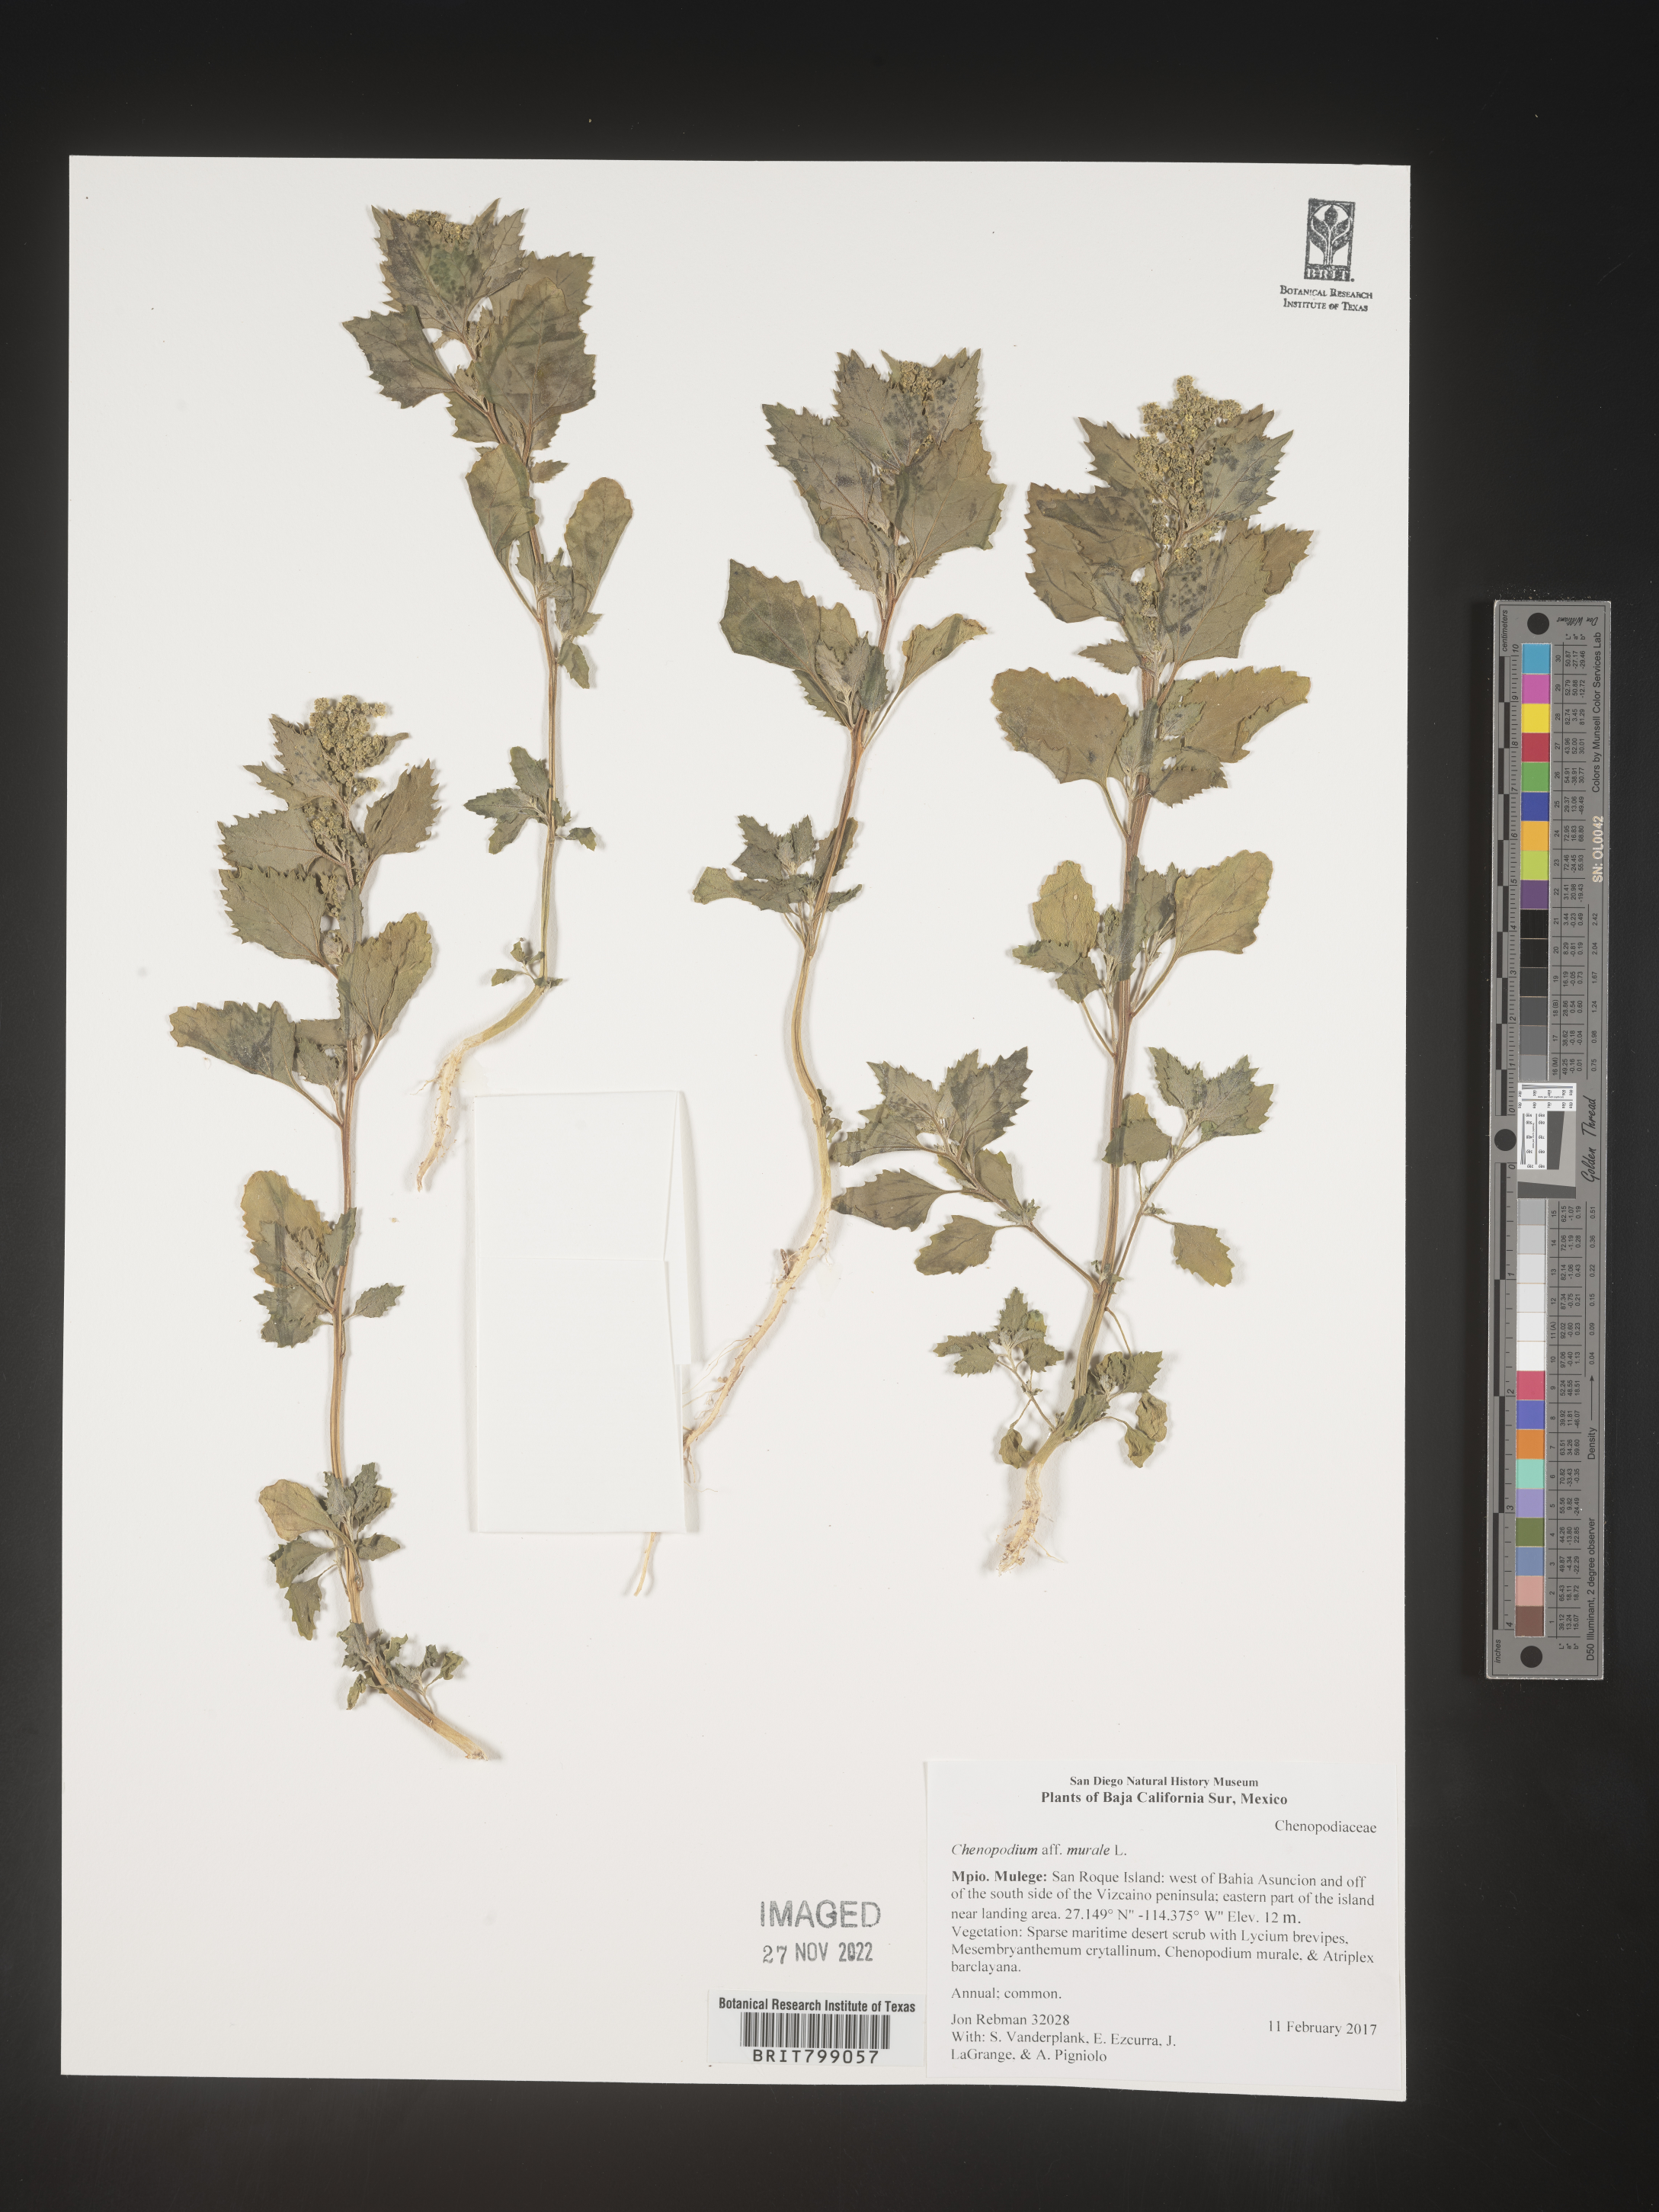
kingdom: Plantae
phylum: Tracheophyta
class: Magnoliopsida
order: Caryophyllales
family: Amaranthaceae
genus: Chenopodium
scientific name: Chenopodium
